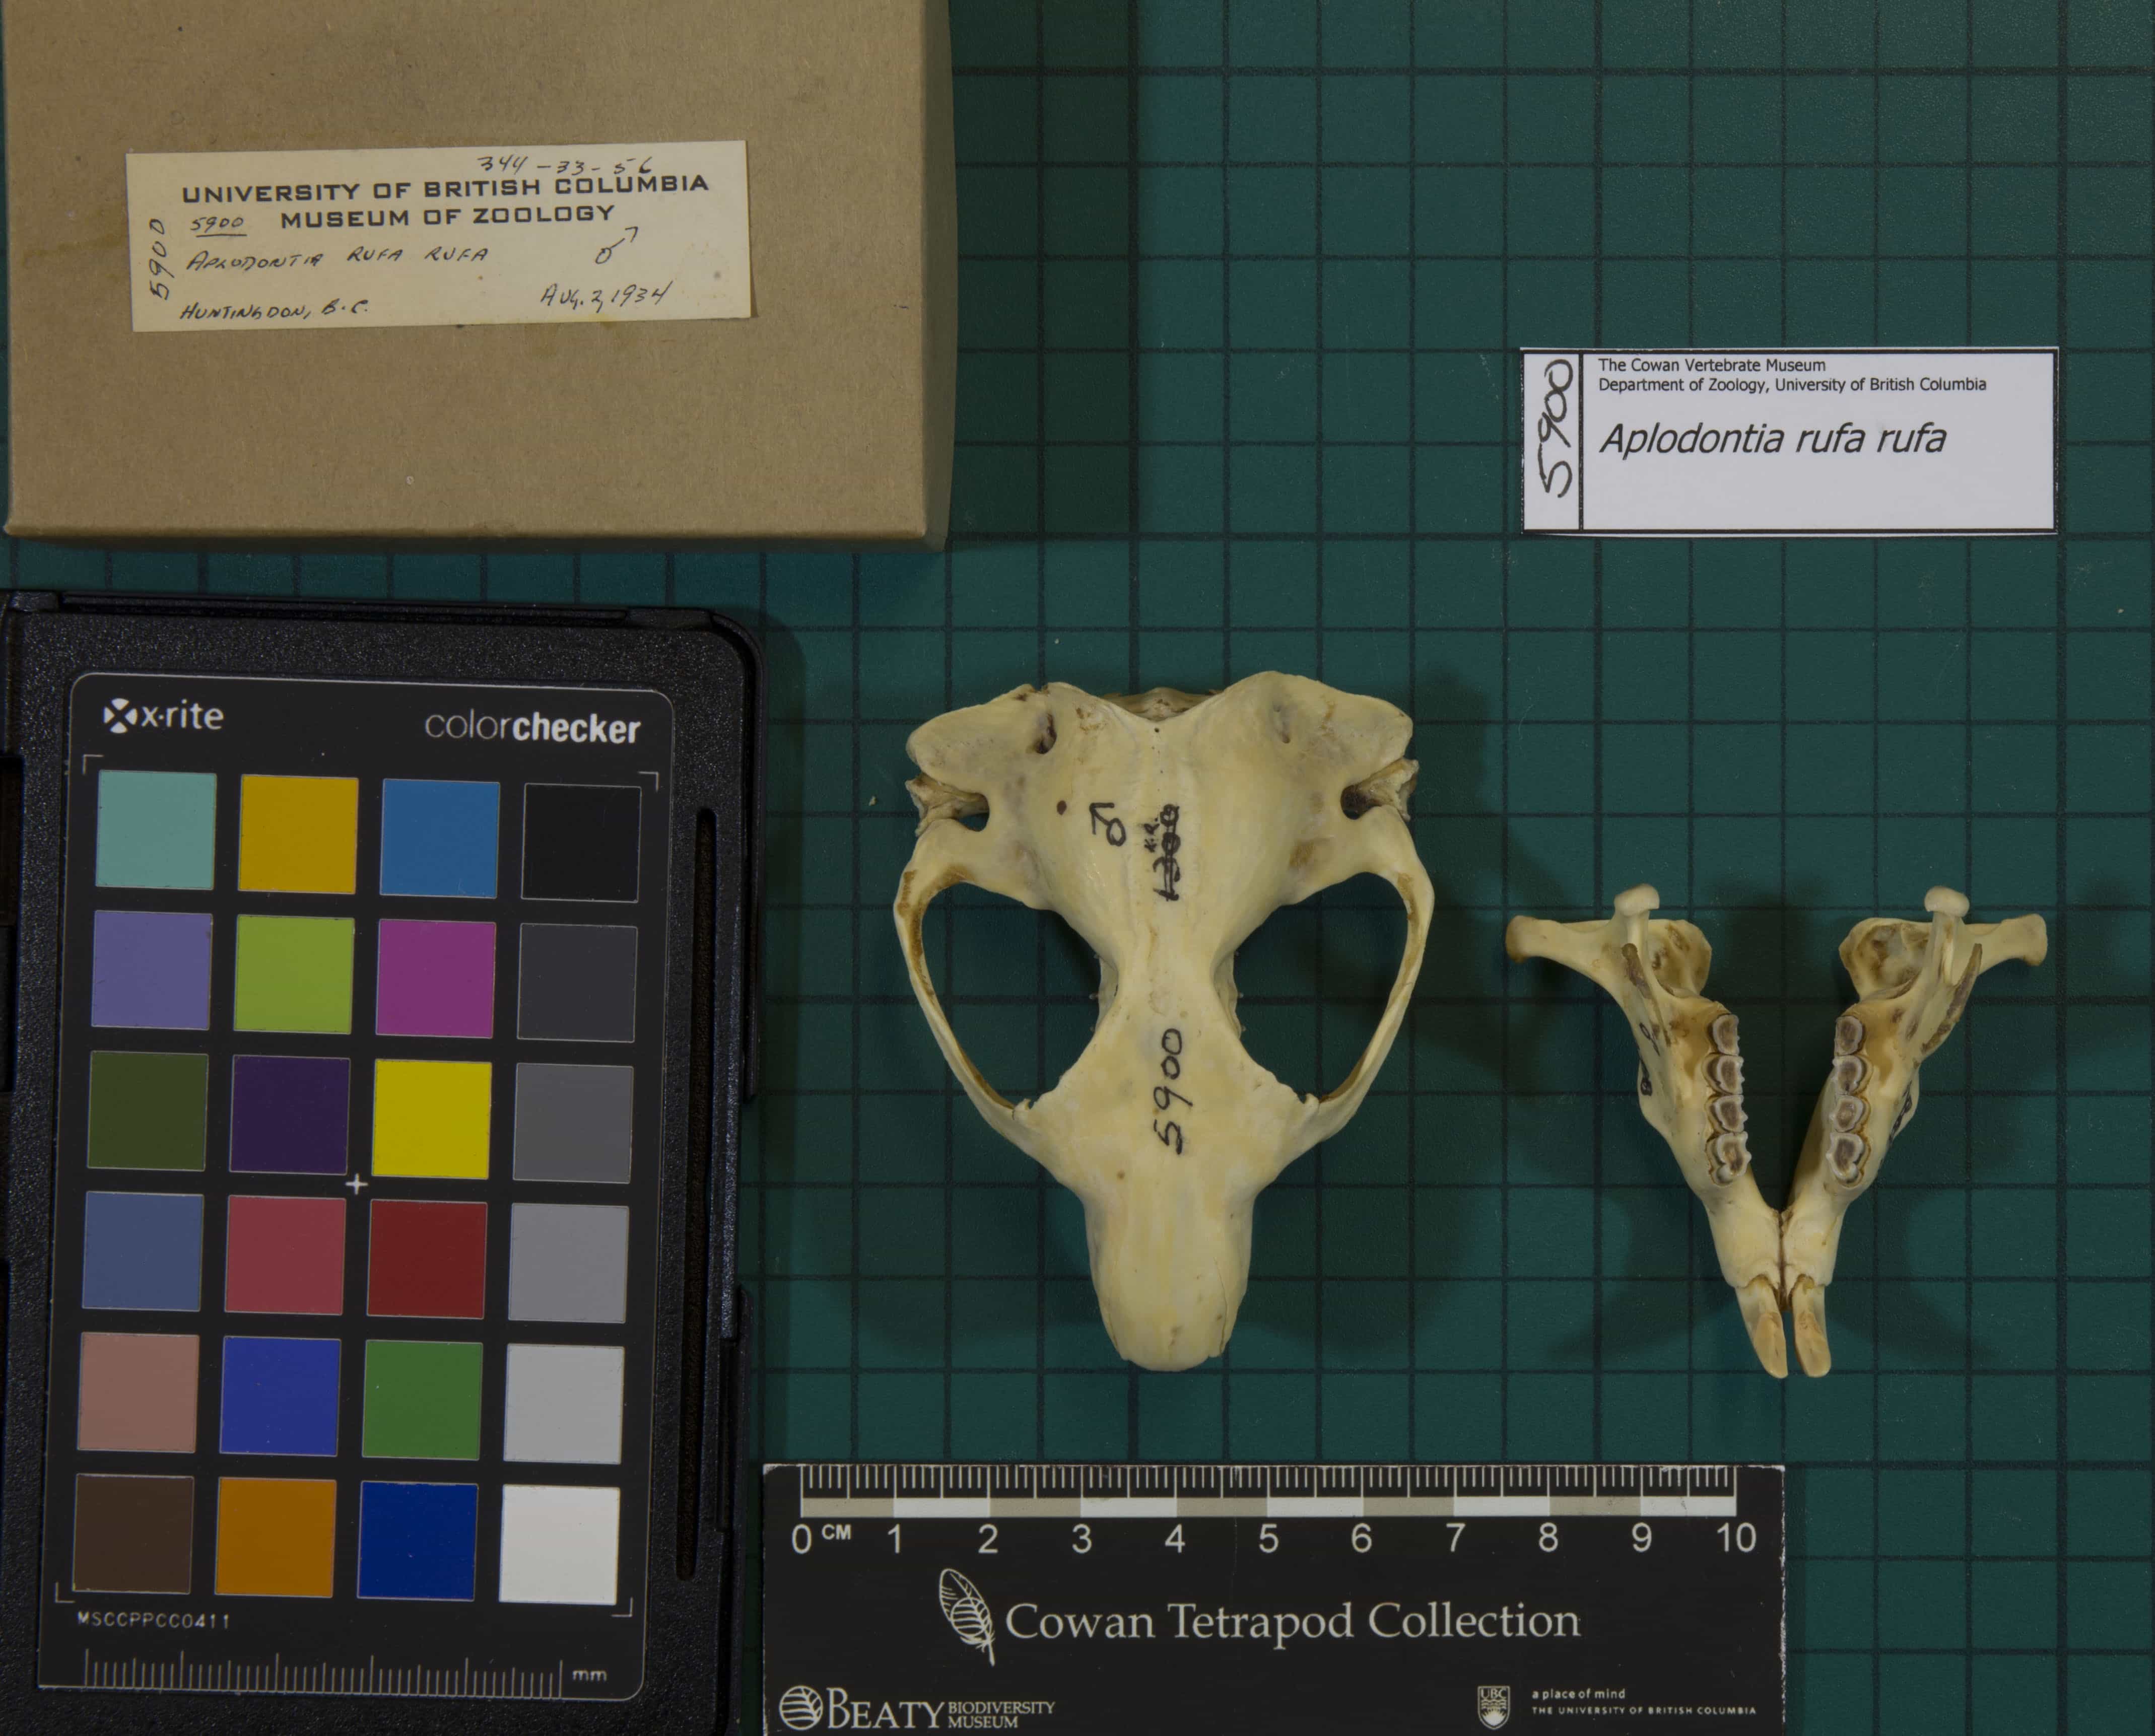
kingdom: Animalia
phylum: Chordata
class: Mammalia
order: Rodentia
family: Aplodontiidae
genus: Aplodontia
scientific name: Aplodontia rufa
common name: Mountain Beaver
